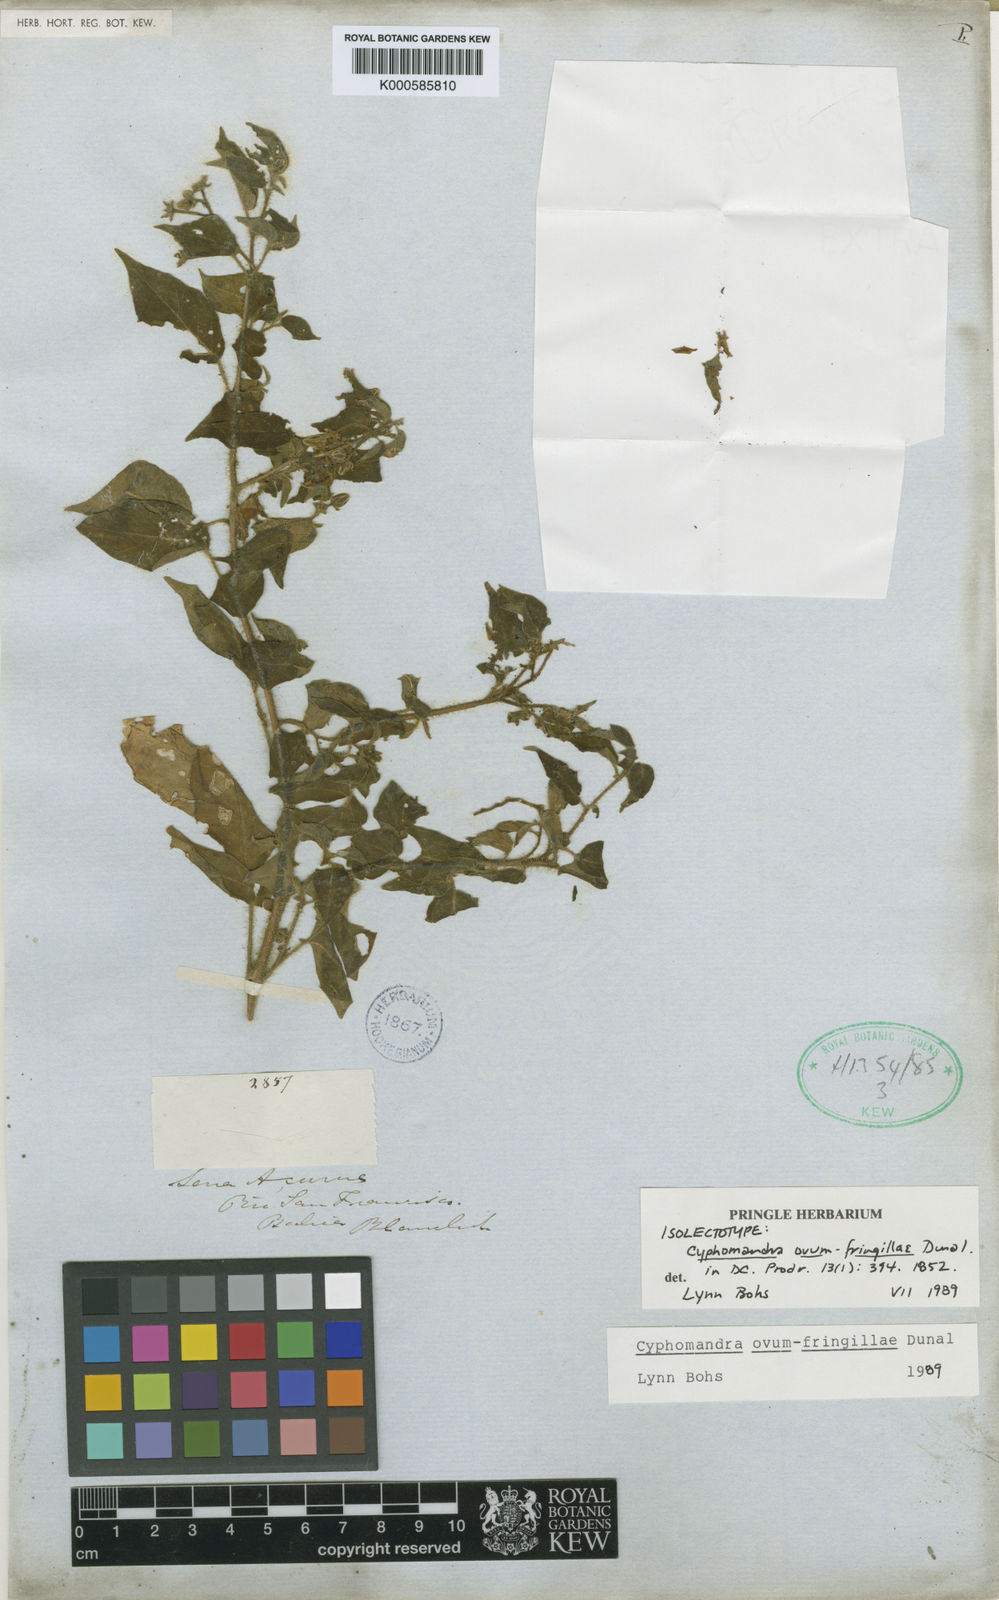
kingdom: Plantae
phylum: Tracheophyta
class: Magnoliopsida
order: Solanales
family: Solanaceae
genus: Solanum
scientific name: Solanum ovum-fringillae
